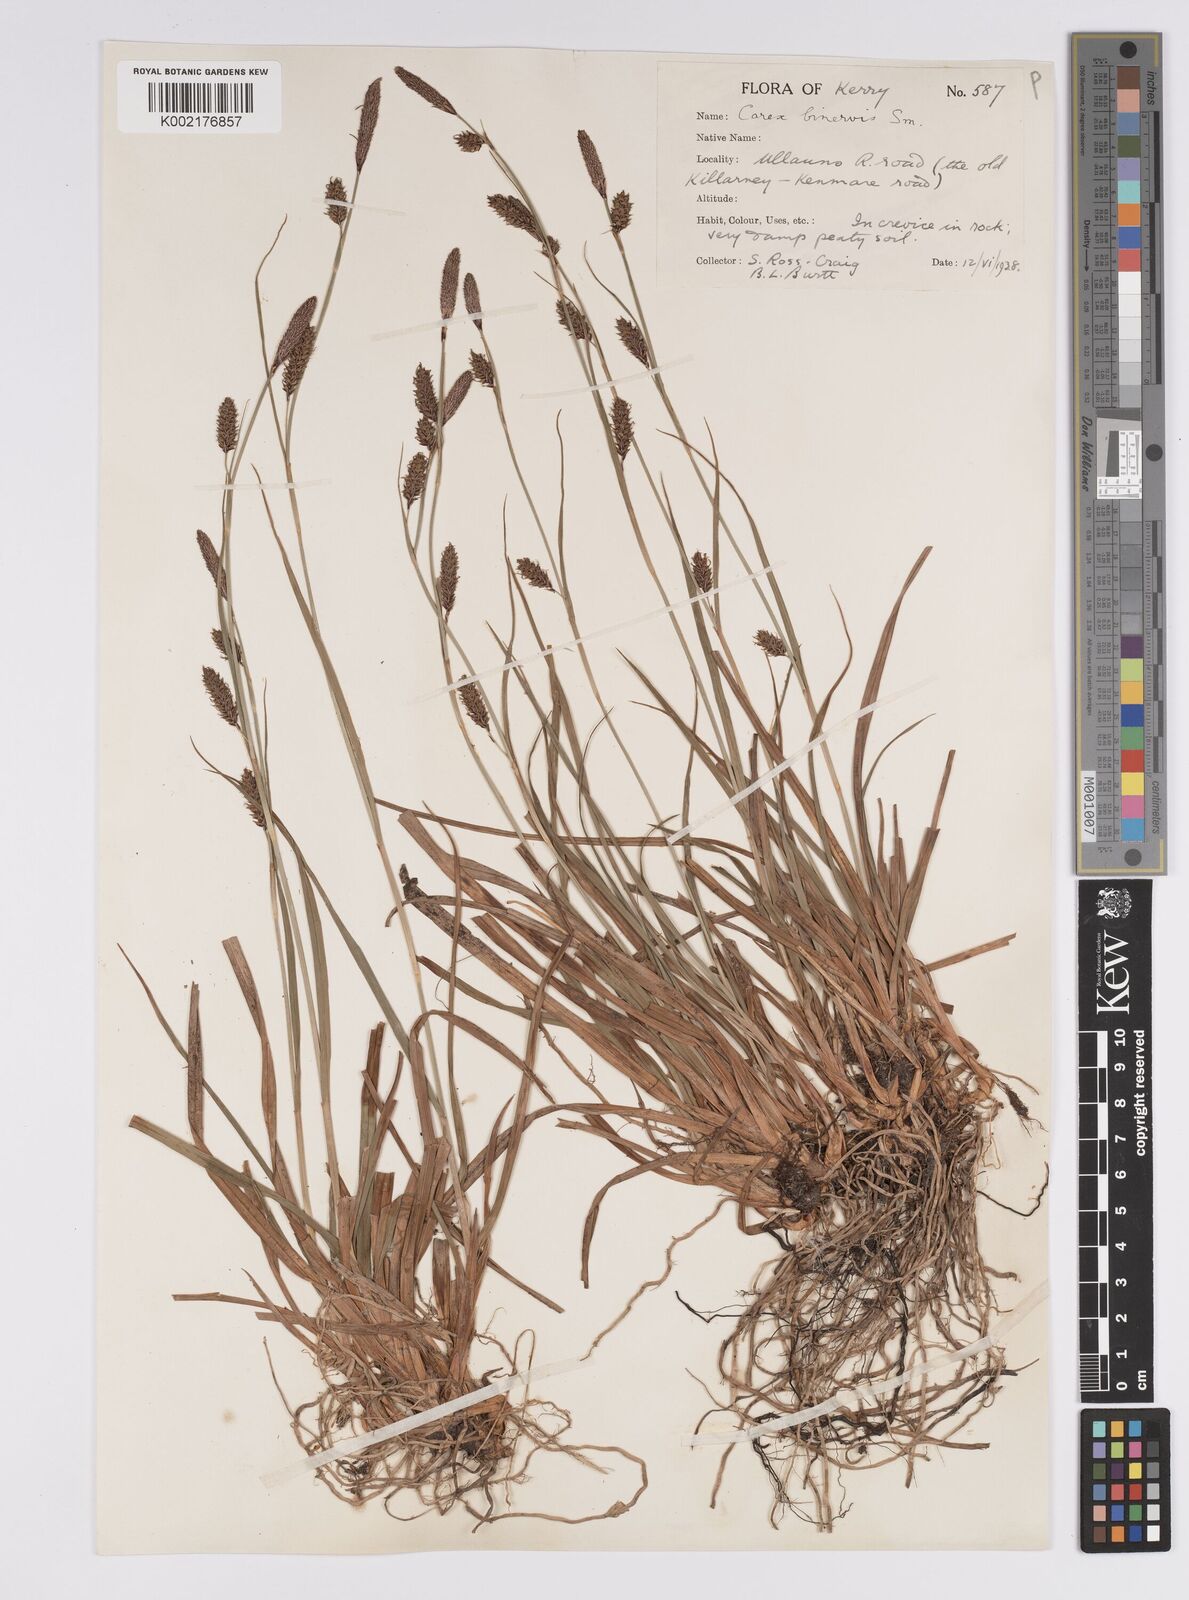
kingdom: Plantae
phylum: Tracheophyta
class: Liliopsida
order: Poales
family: Cyperaceae
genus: Carex
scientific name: Carex binervis
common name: Green-ribbed sedge
